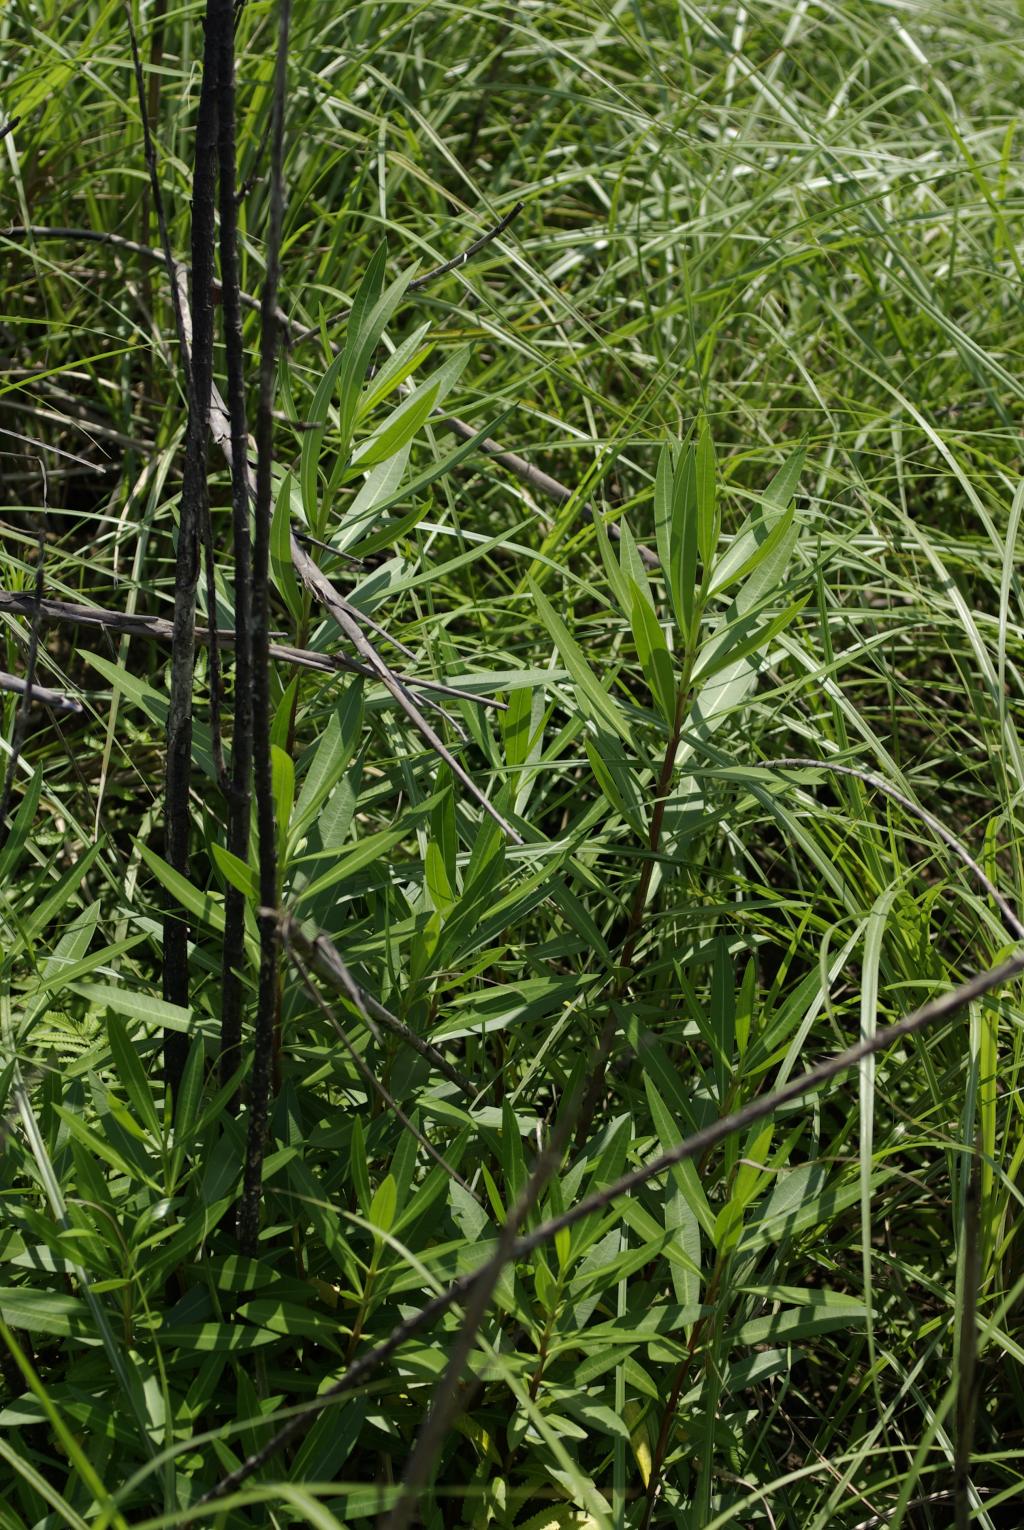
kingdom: Plantae
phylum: Tracheophyta
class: Magnoliopsida
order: Gentianales
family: Apocynaceae
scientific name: Apocynaceae
